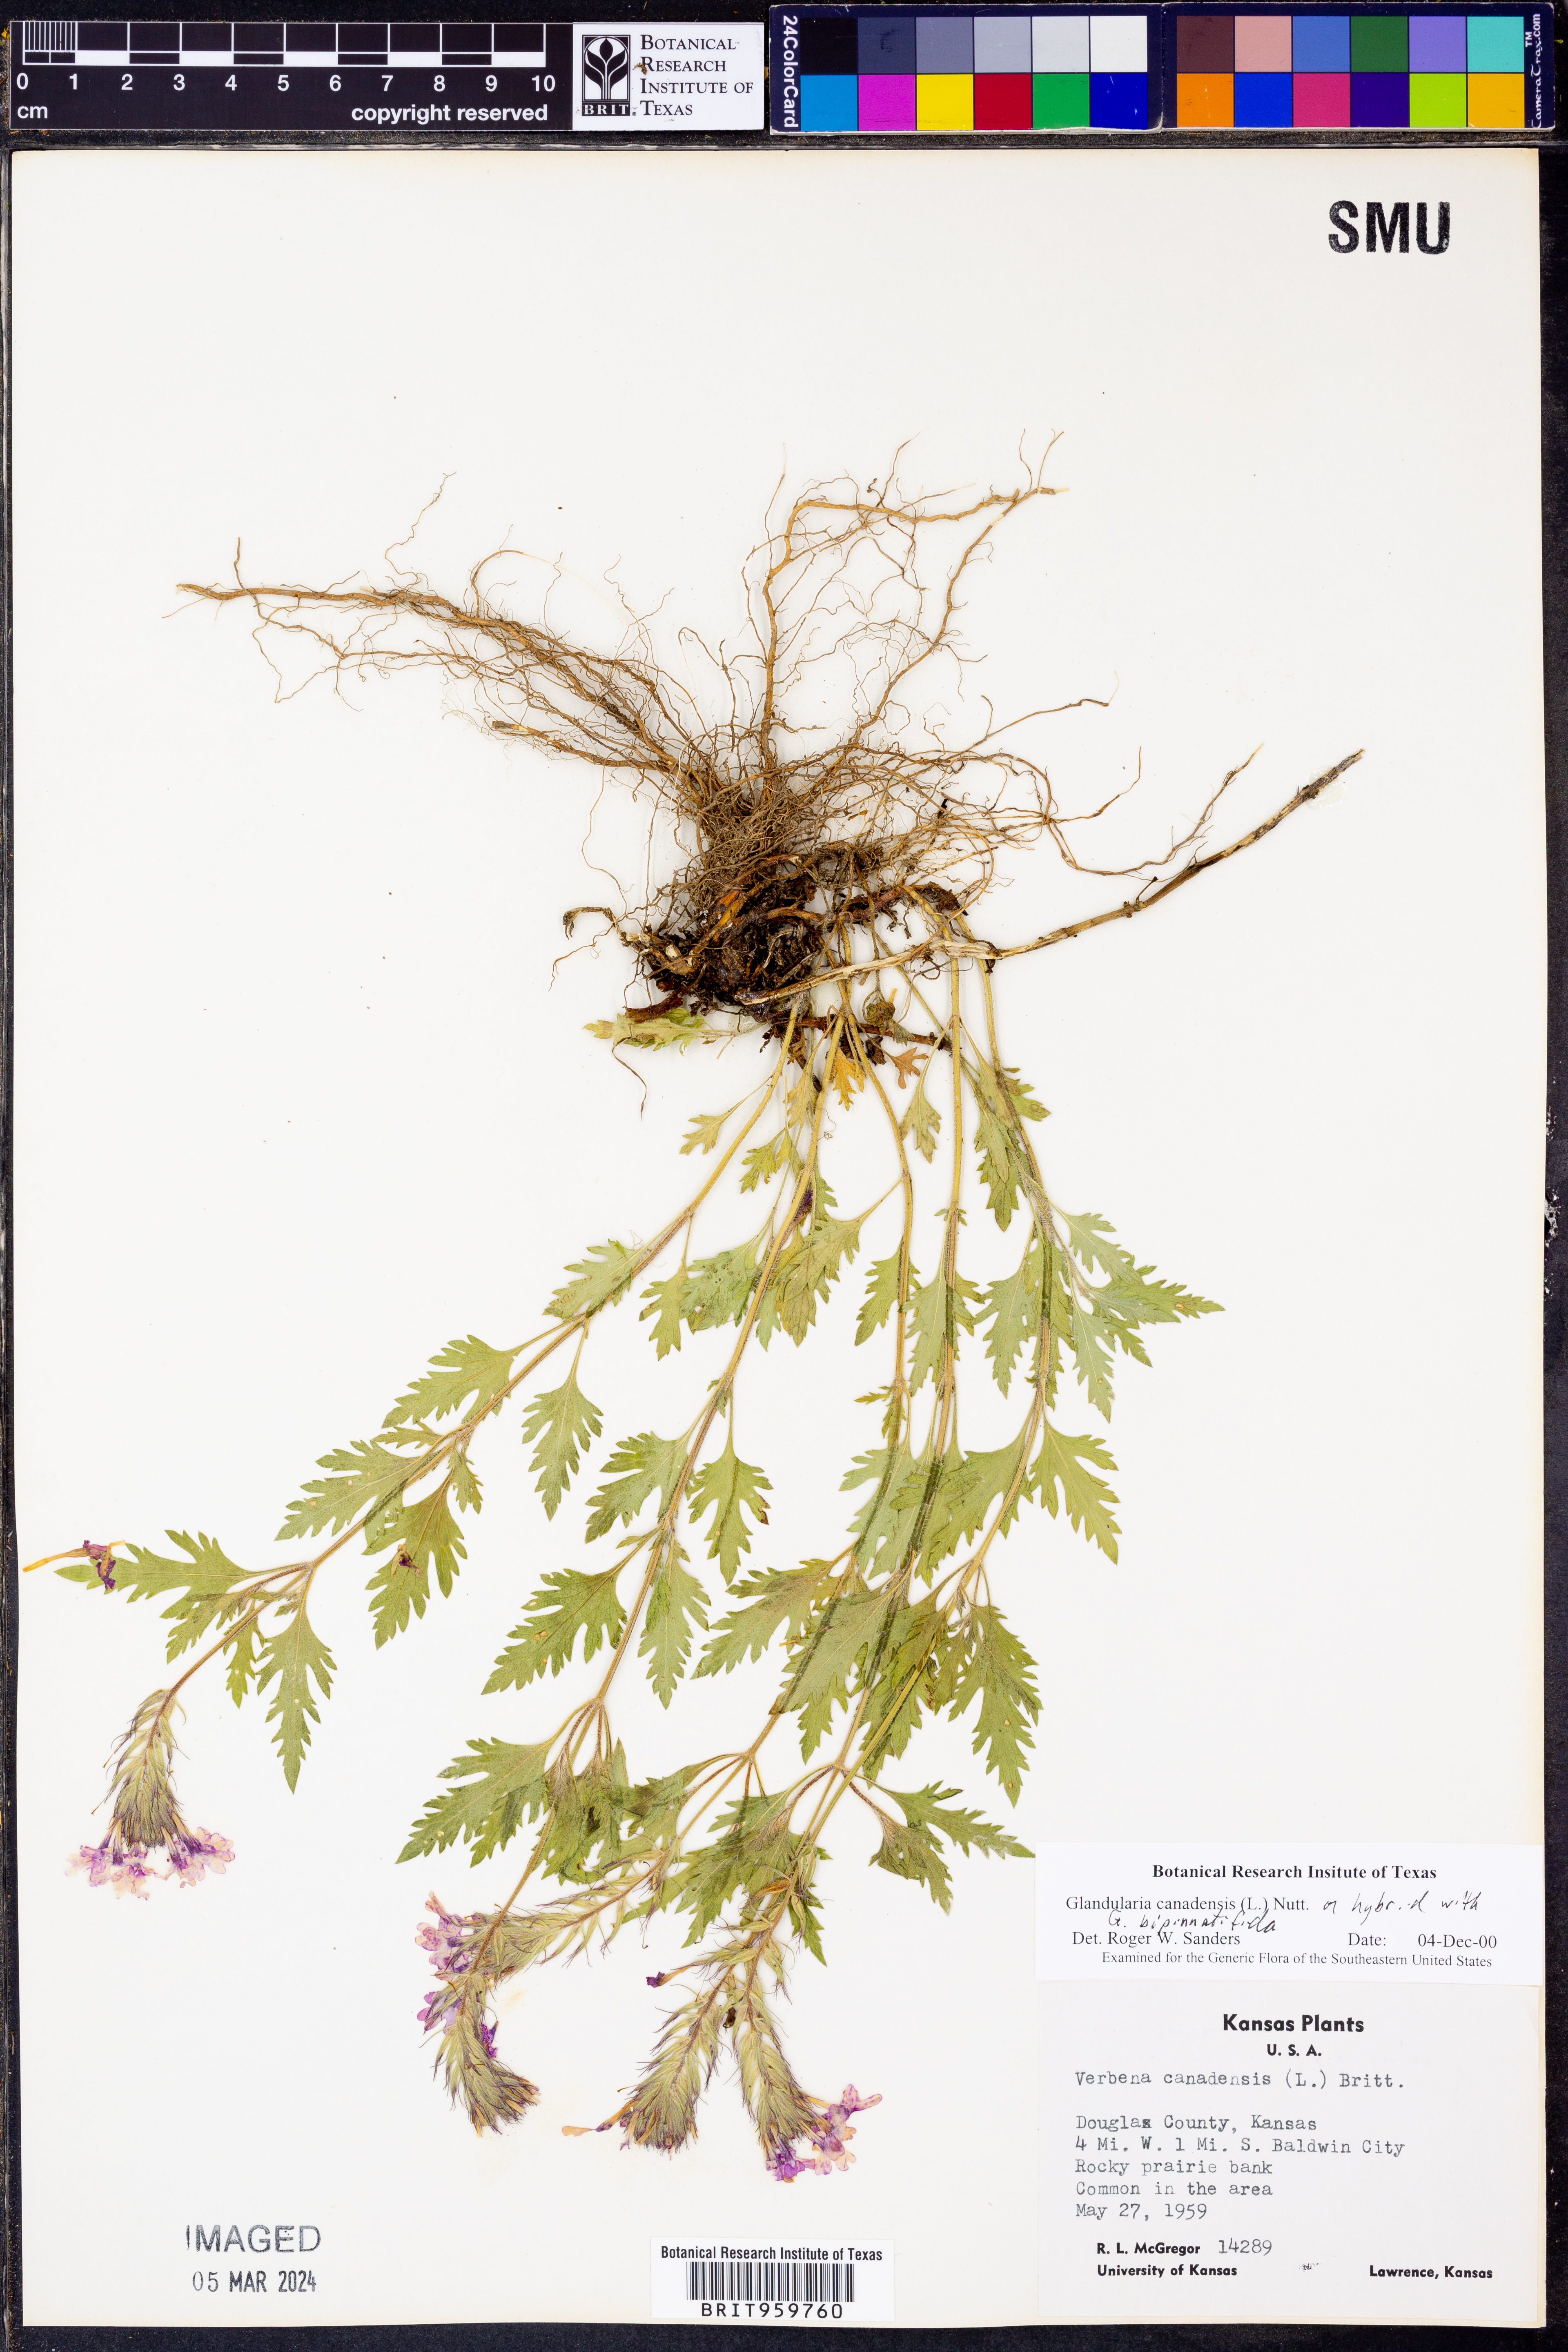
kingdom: Plantae
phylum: Tracheophyta
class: Magnoliopsida
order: Lamiales
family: Verbenaceae
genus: Verbena
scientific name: Verbena canadensis
